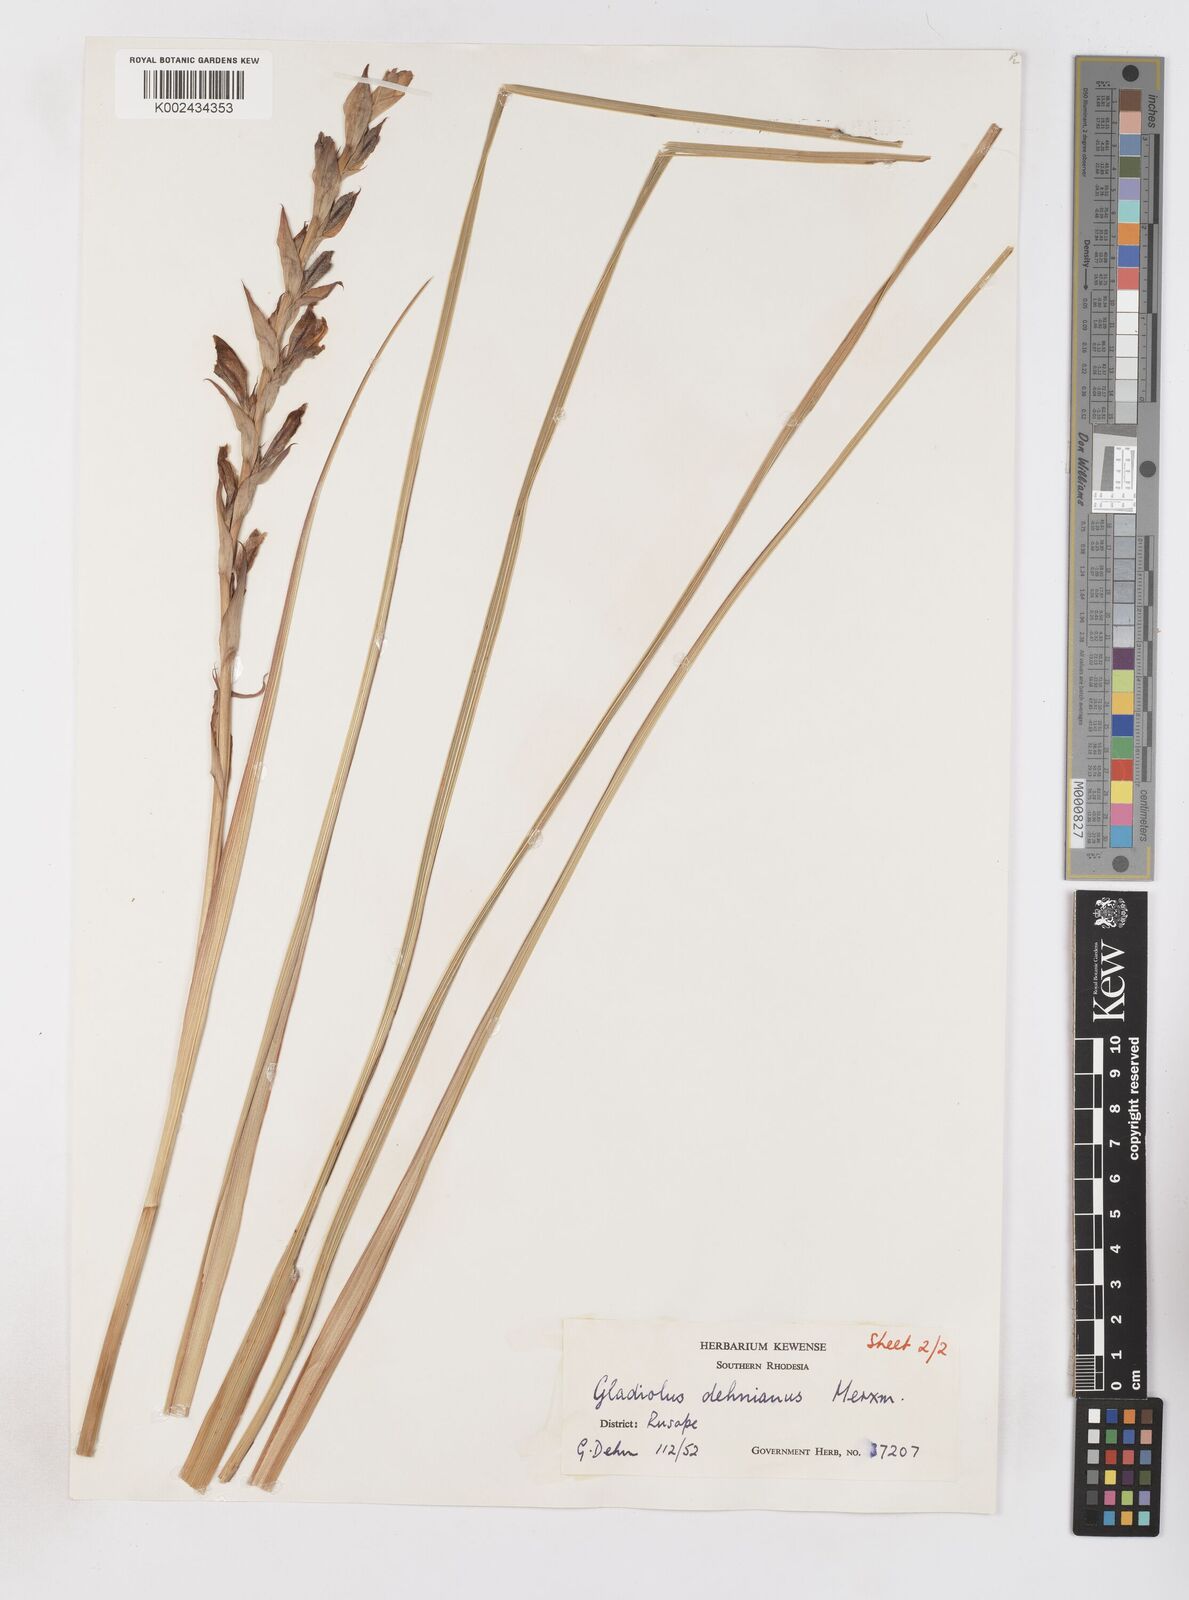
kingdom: Plantae
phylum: Tracheophyta
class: Liliopsida
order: Asparagales
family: Iridaceae
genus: Gladiolus
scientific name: Gladiolus sericeovillosus
